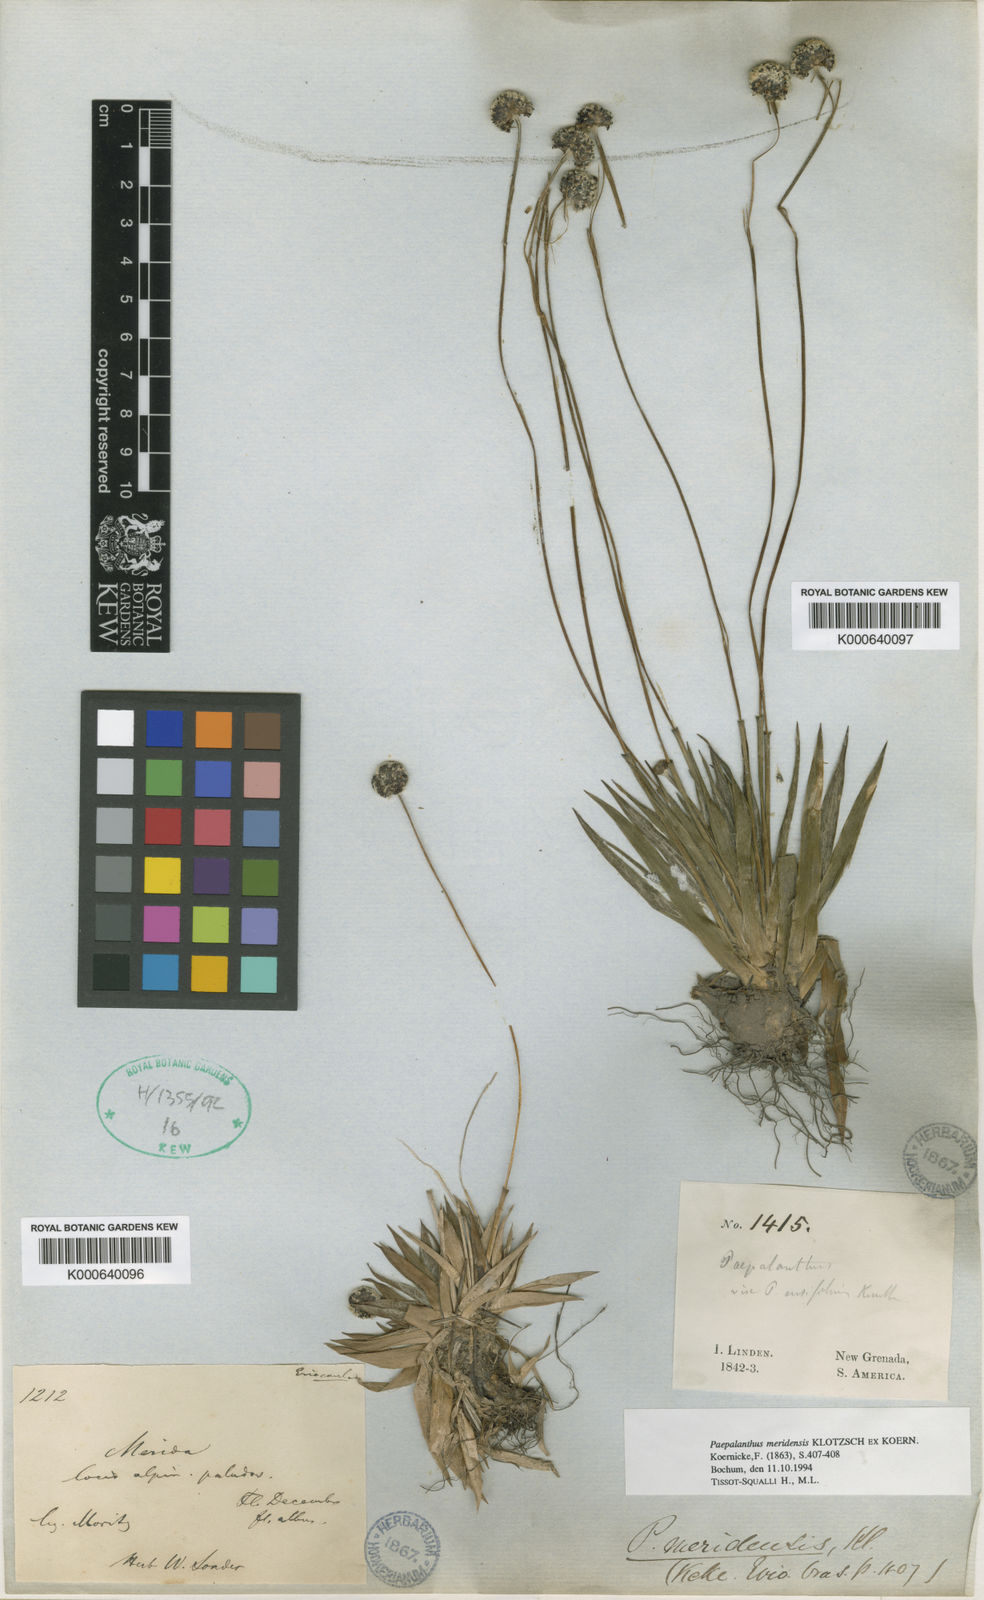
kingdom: Plantae
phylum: Tracheophyta
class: Liliopsida
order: Poales
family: Eriocaulaceae
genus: Paepalanthus
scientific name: Paepalanthus
